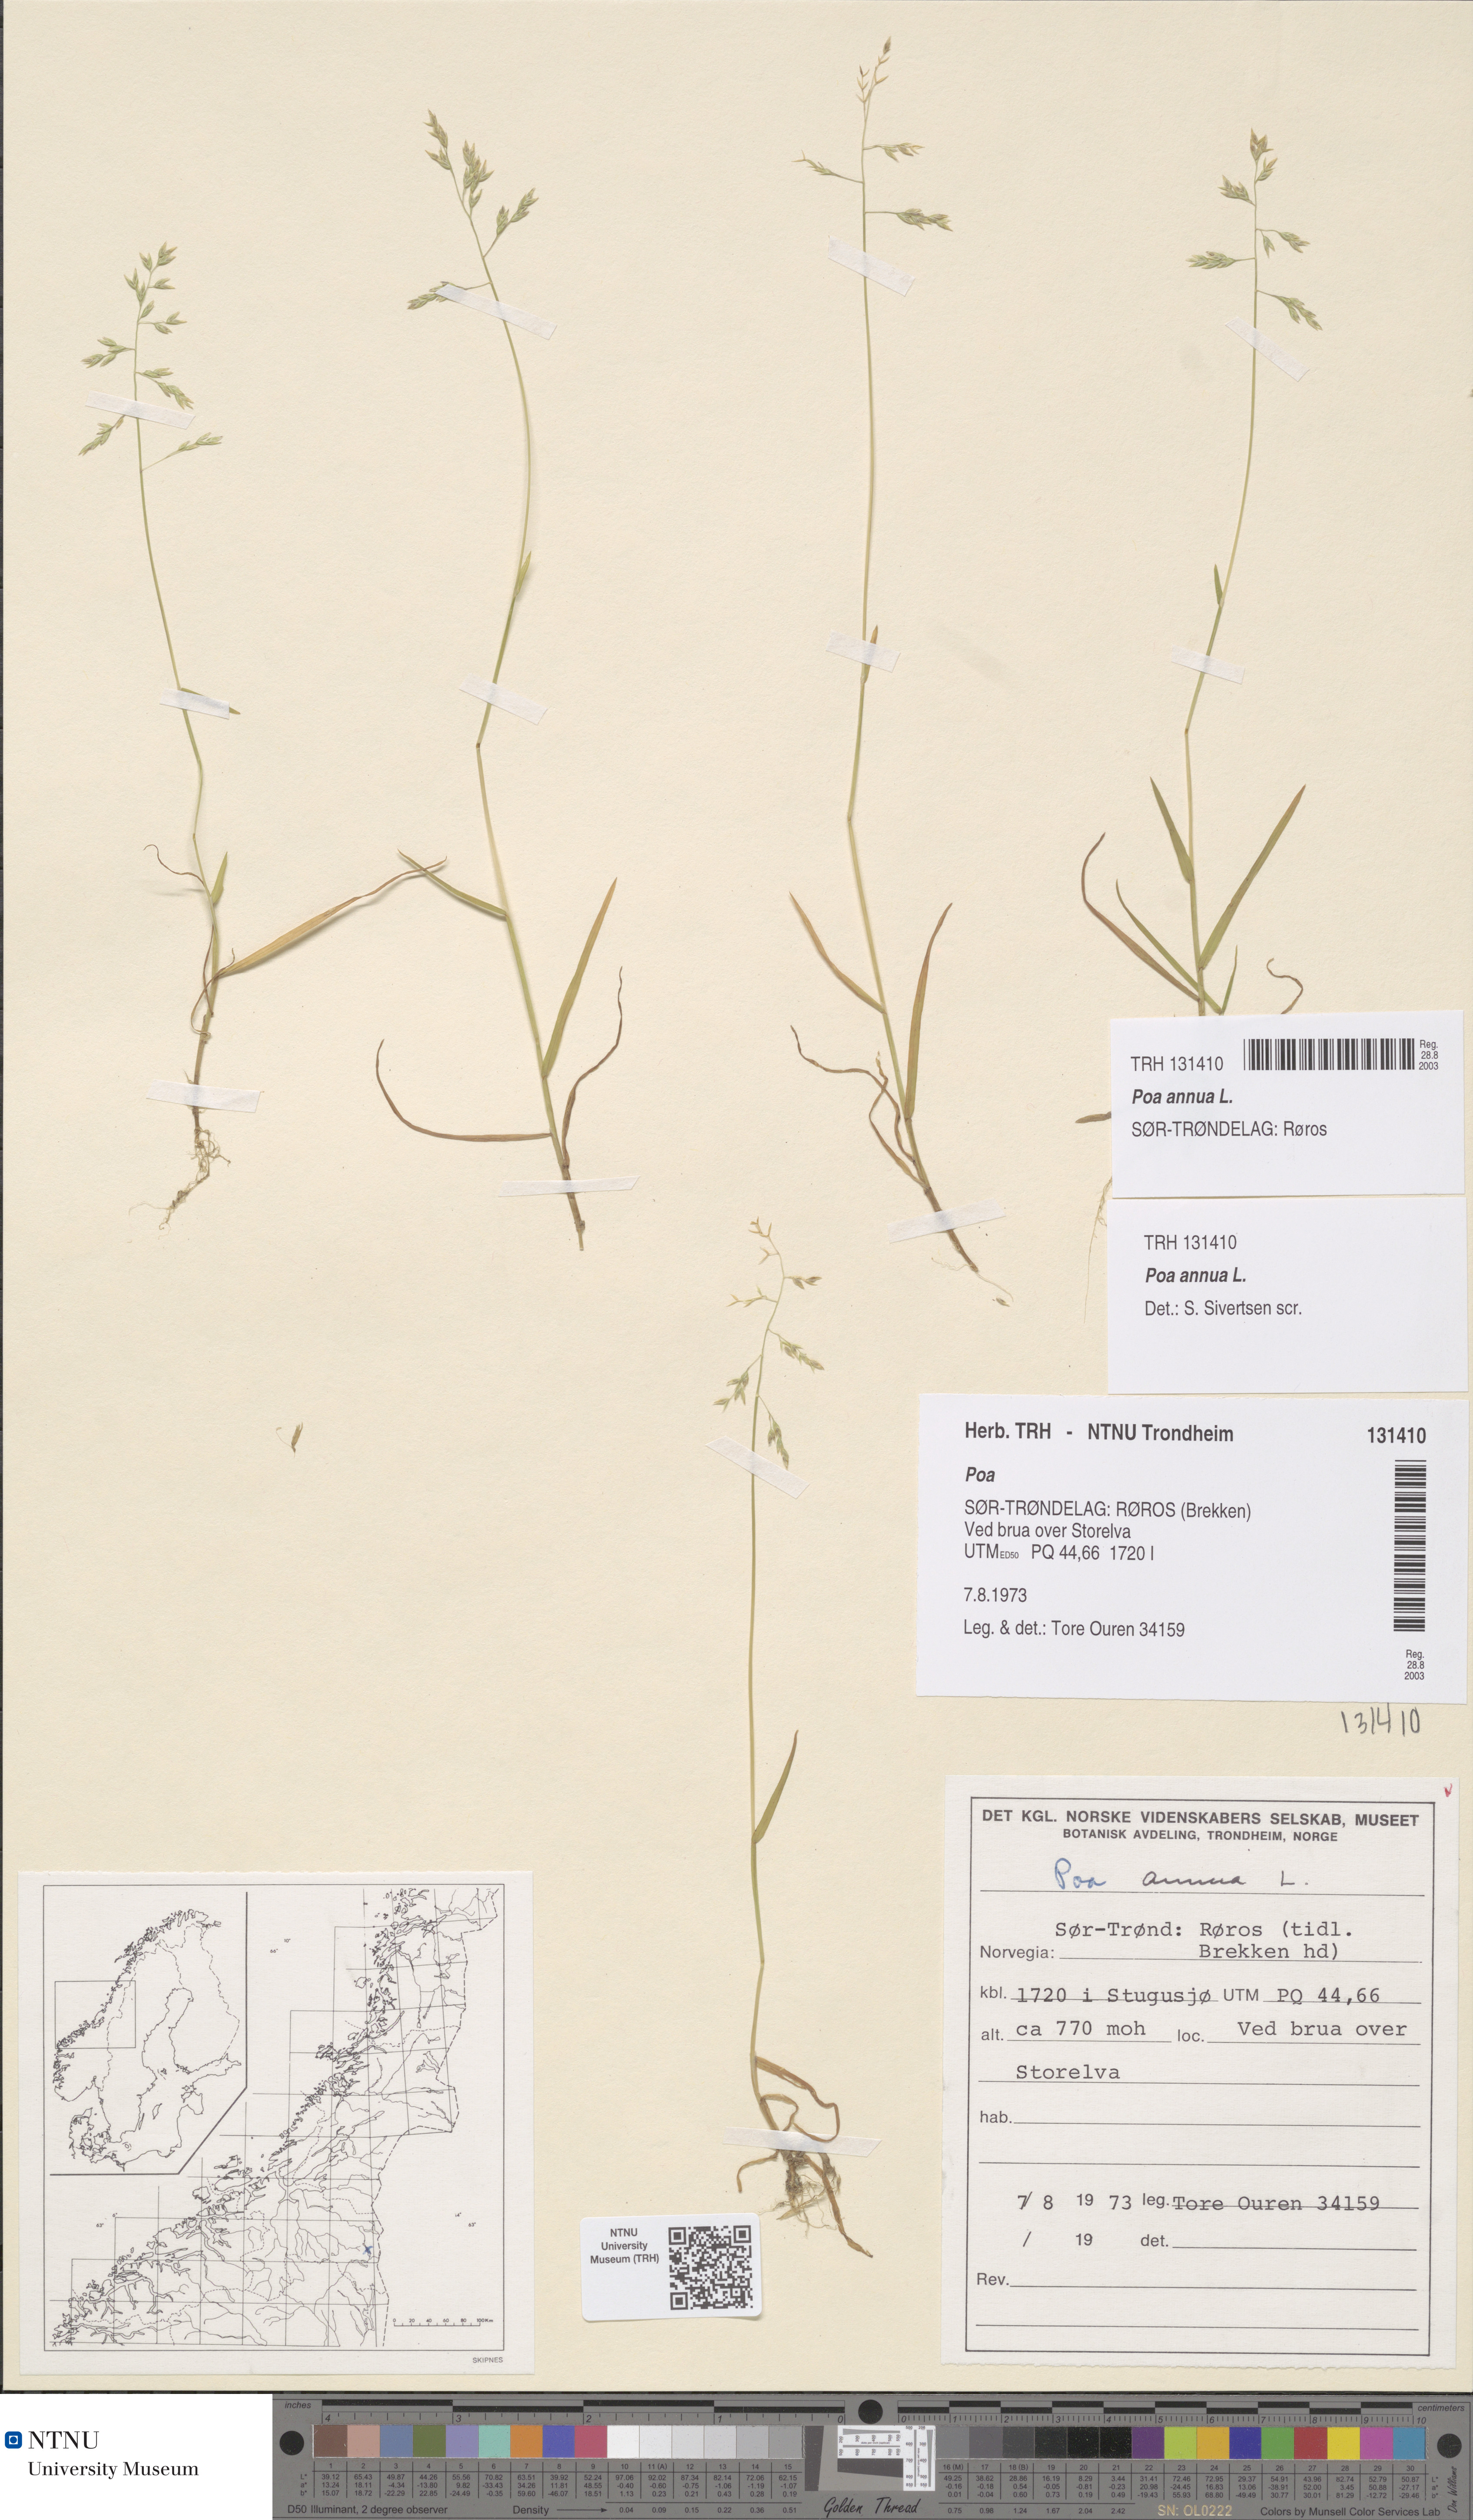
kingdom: Plantae
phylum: Tracheophyta
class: Liliopsida
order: Poales
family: Poaceae
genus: Poa
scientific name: Poa annua
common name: Annual bluegrass
